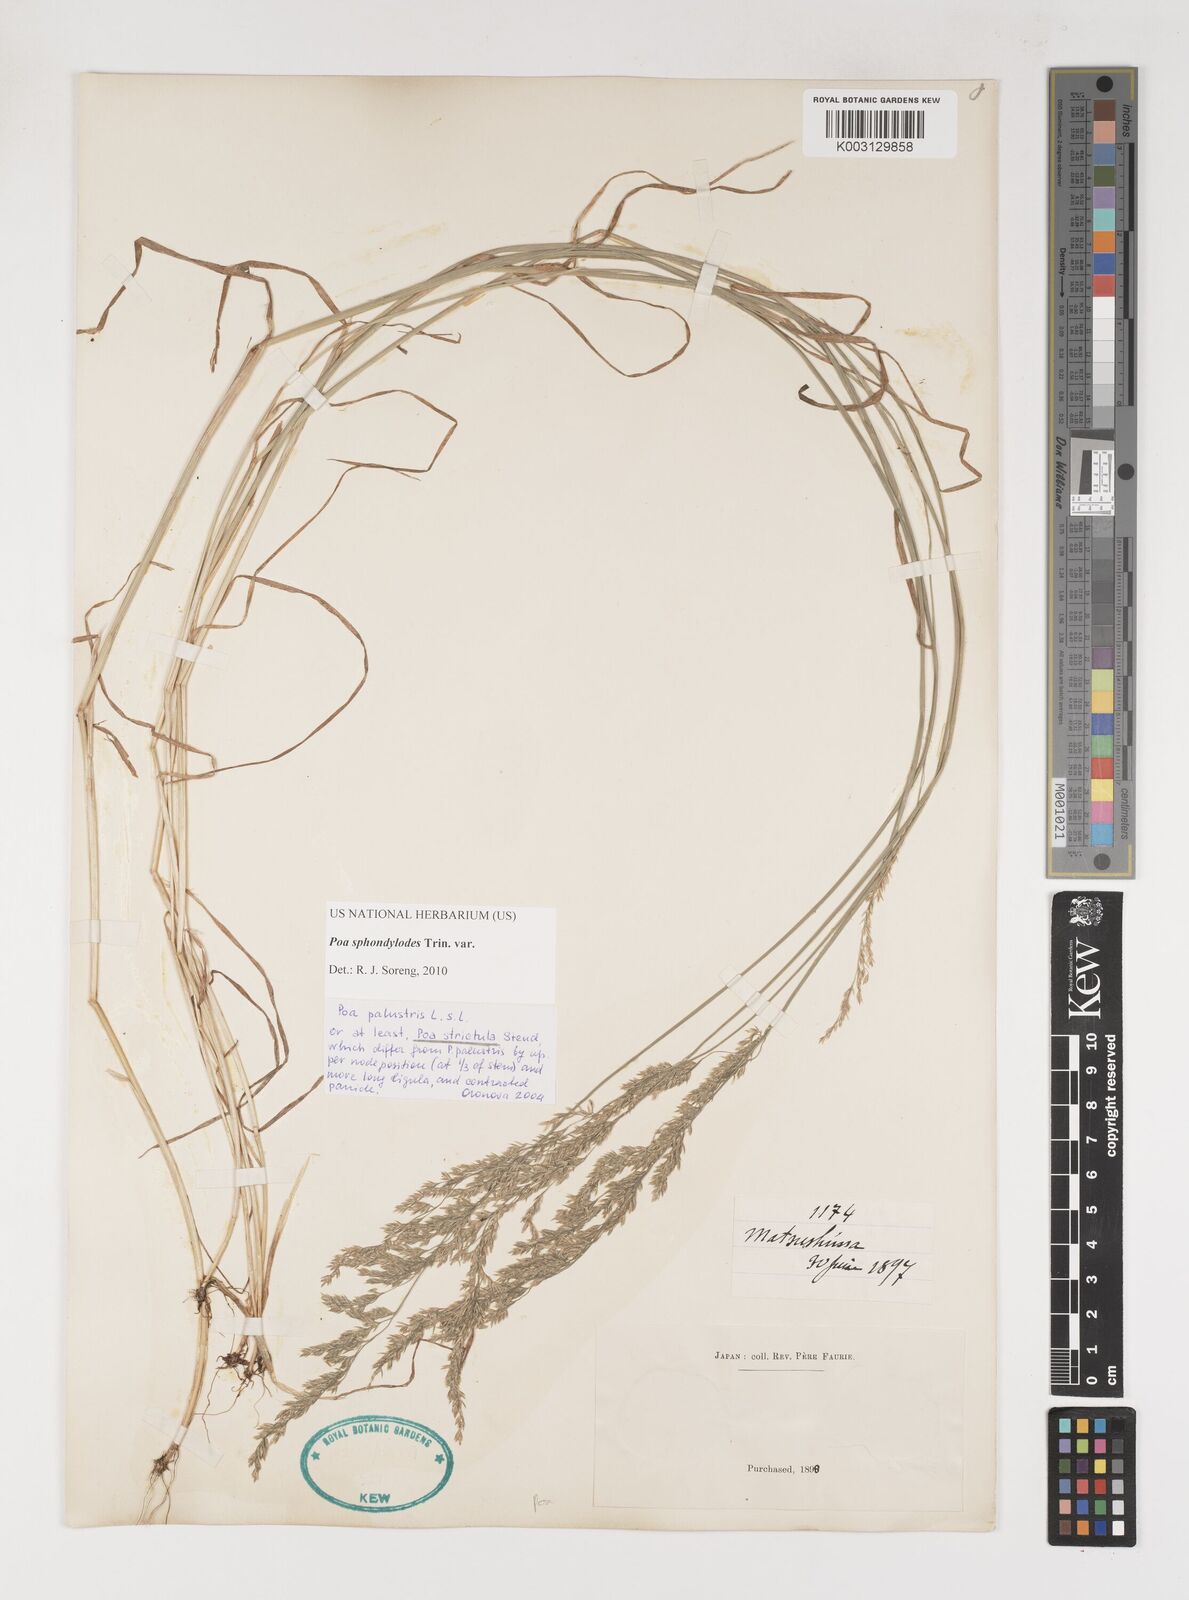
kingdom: Plantae
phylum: Tracheophyta
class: Liliopsida
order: Poales
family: Poaceae
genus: Poa
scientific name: Poa sphondylodes
